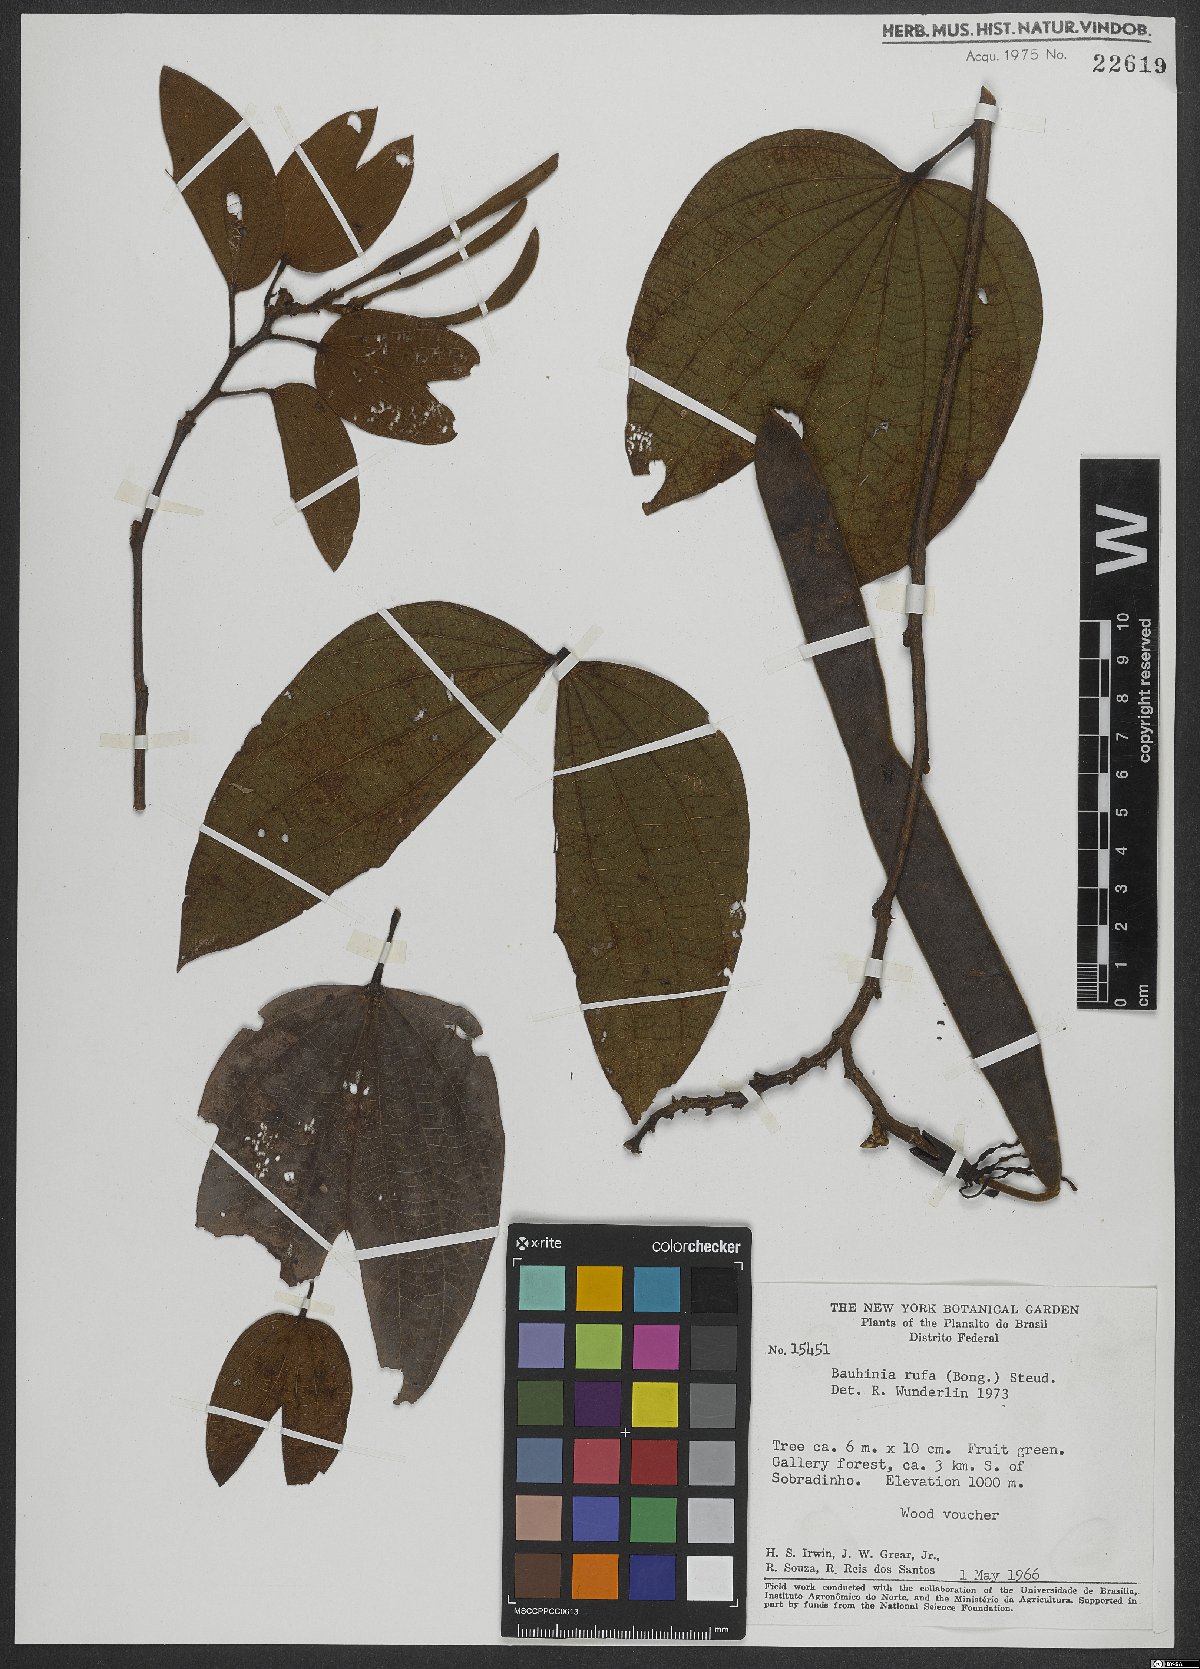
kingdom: Plantae
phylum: Tracheophyta
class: Magnoliopsida
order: Fabales
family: Fabaceae
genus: Bauhinia
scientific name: Bauhinia rufa
